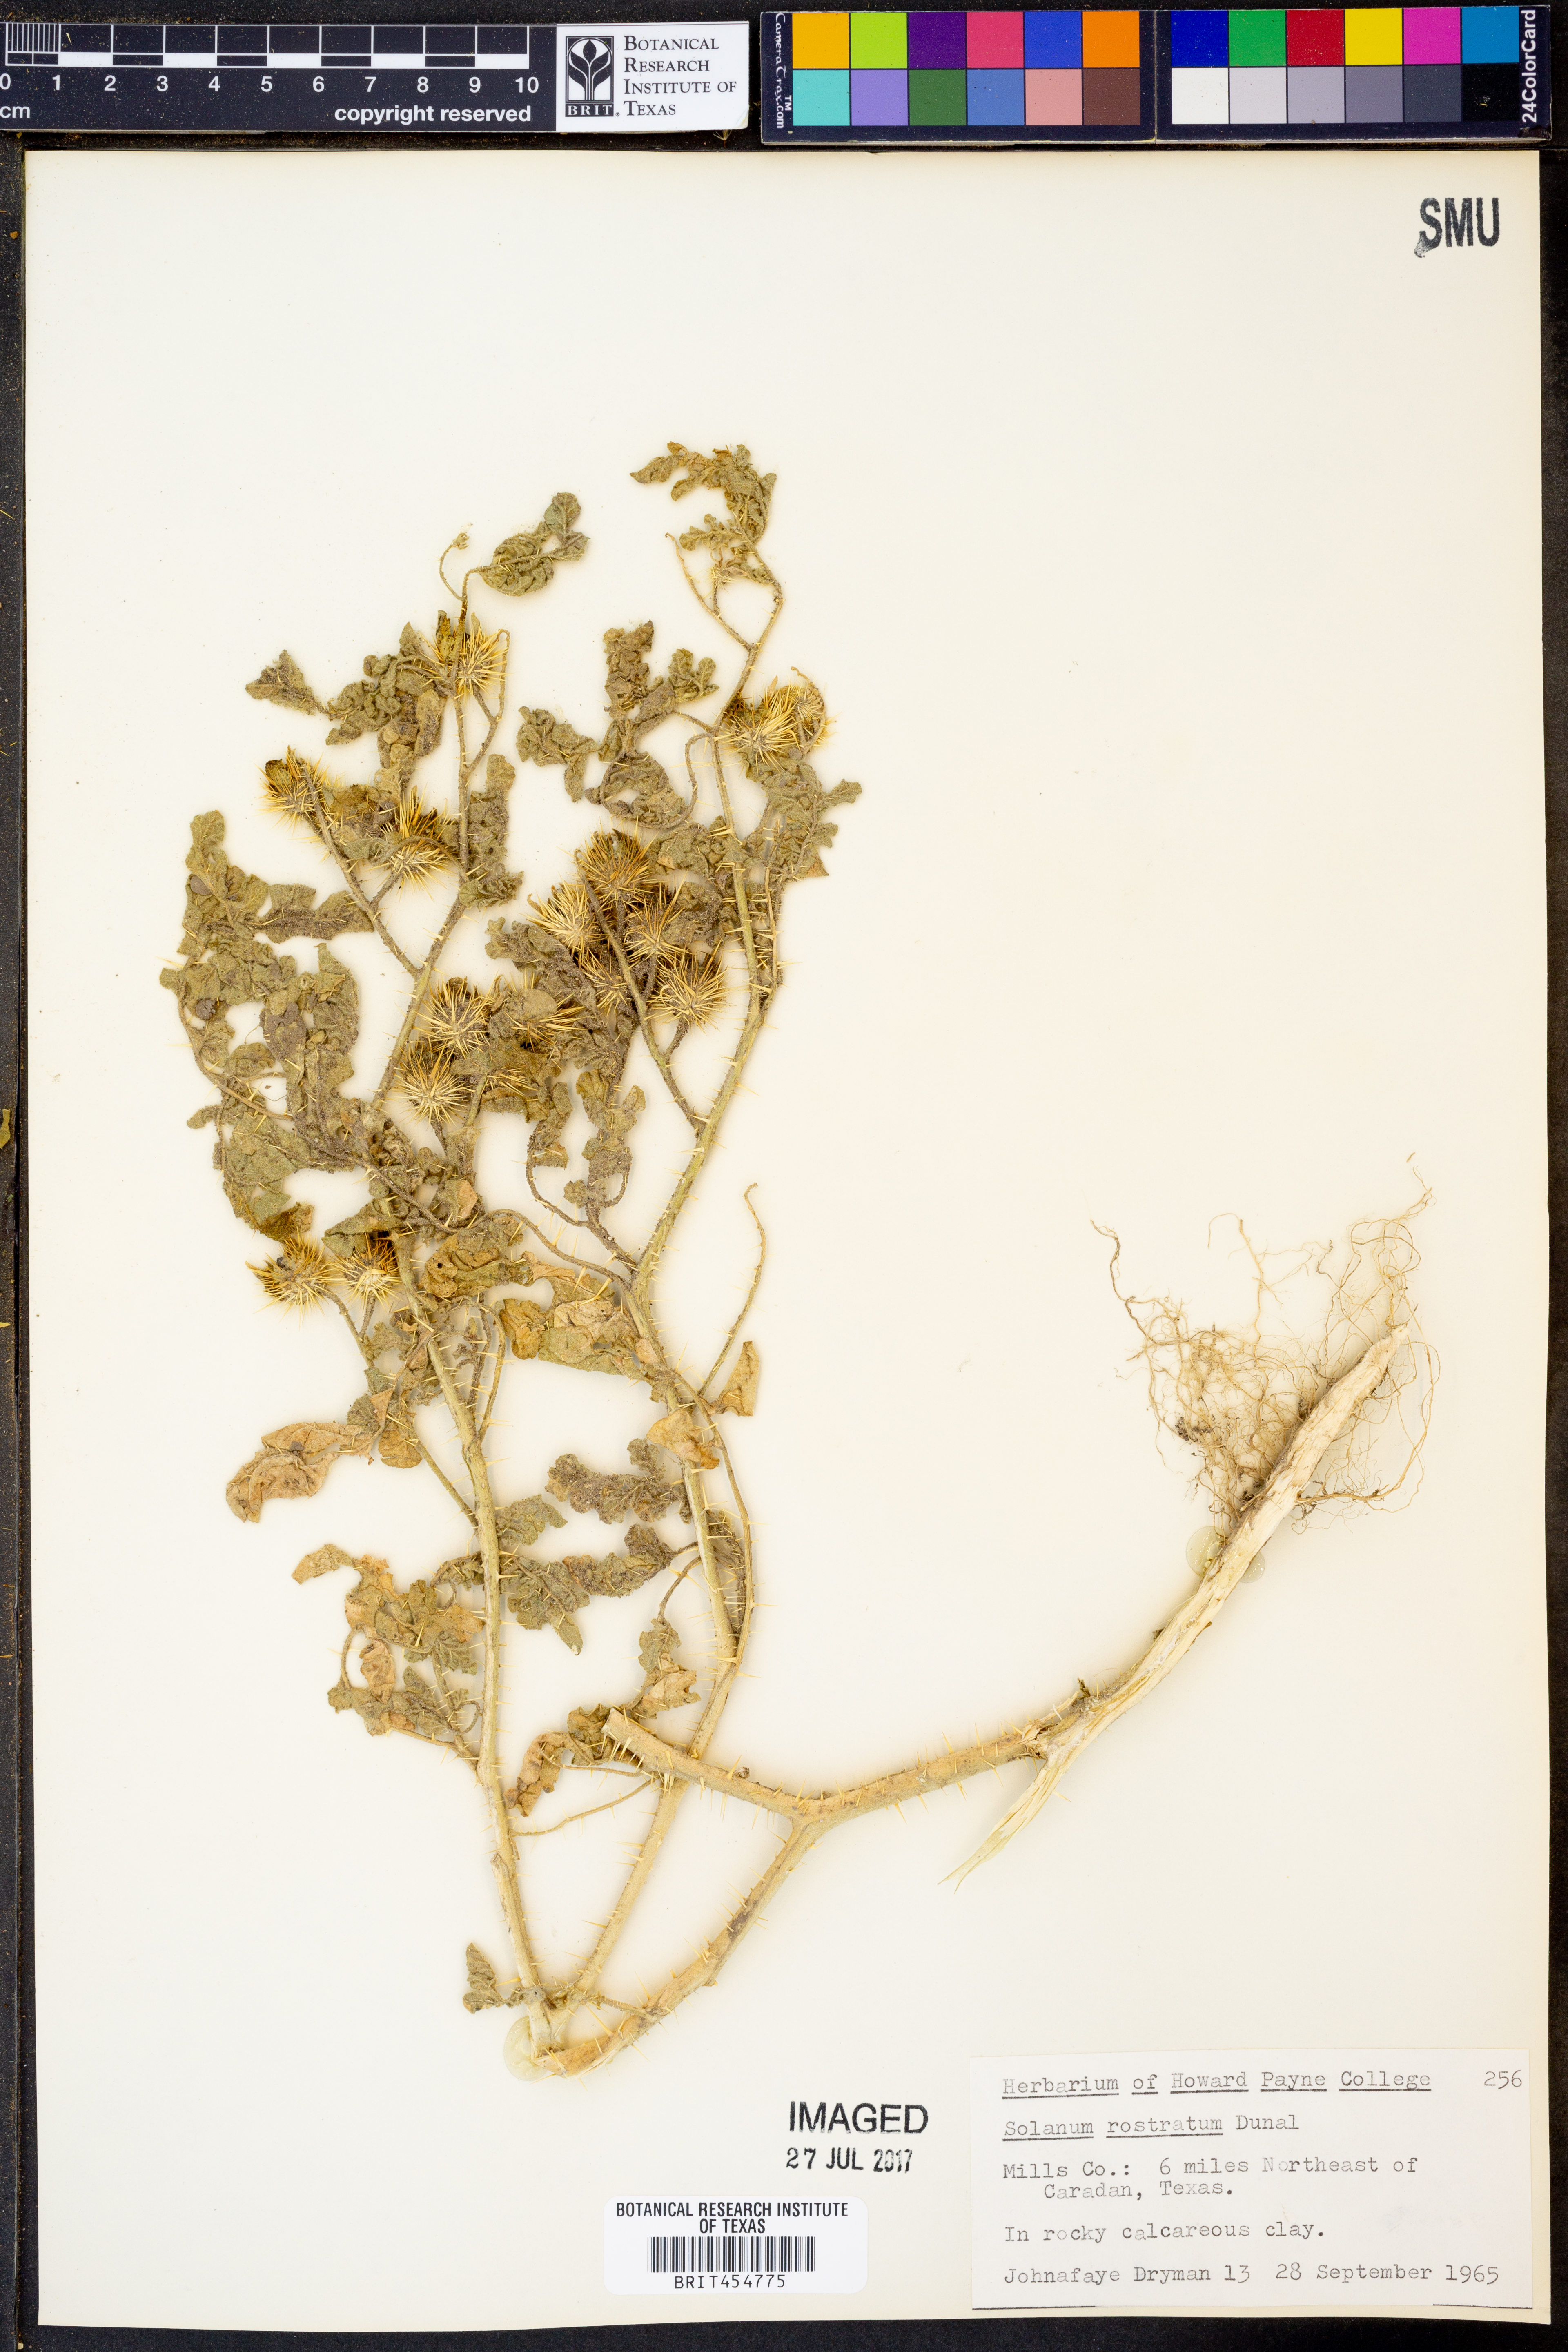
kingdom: Plantae
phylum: Tracheophyta
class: Magnoliopsida
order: Solanales
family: Solanaceae
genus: Solanum
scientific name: Solanum angustifolium
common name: Buffalobur nightshade
